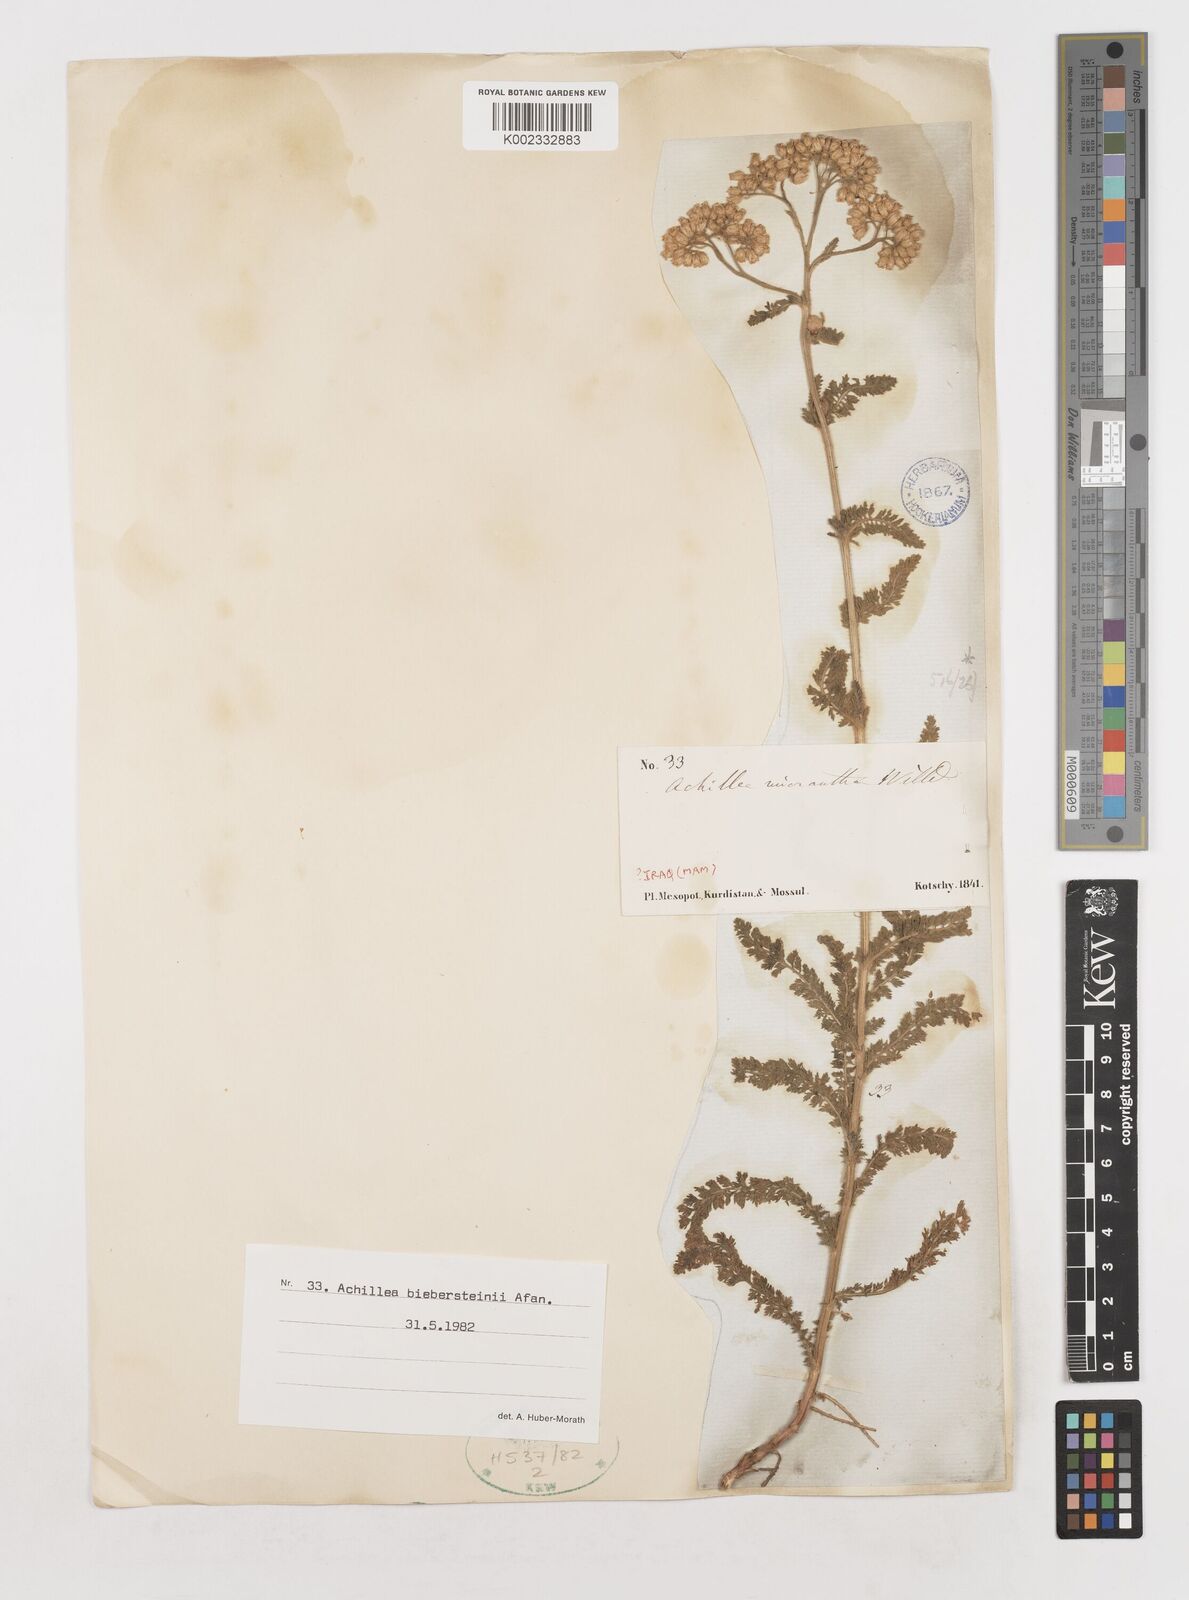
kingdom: Plantae
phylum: Tracheophyta
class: Magnoliopsida
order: Asterales
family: Asteraceae
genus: Achillea
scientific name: Achillea arabica
